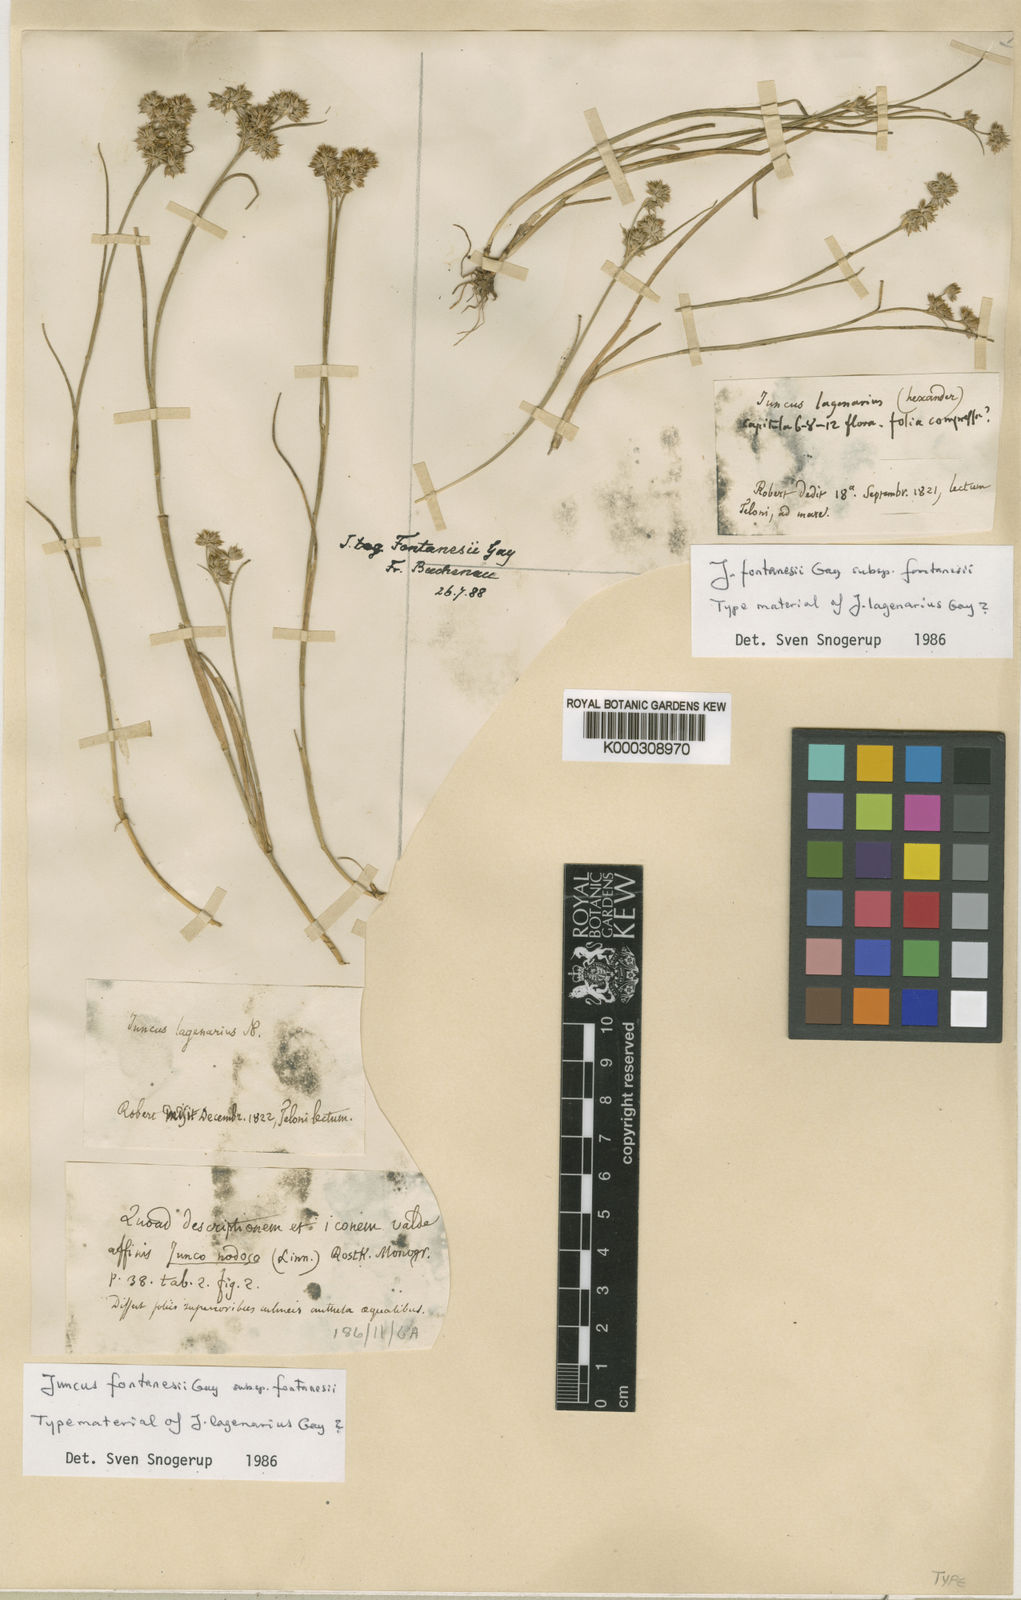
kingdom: Plantae
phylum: Tracheophyta
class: Liliopsida
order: Poales
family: Juncaceae
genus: Juncus
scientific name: Juncus fontanesii
